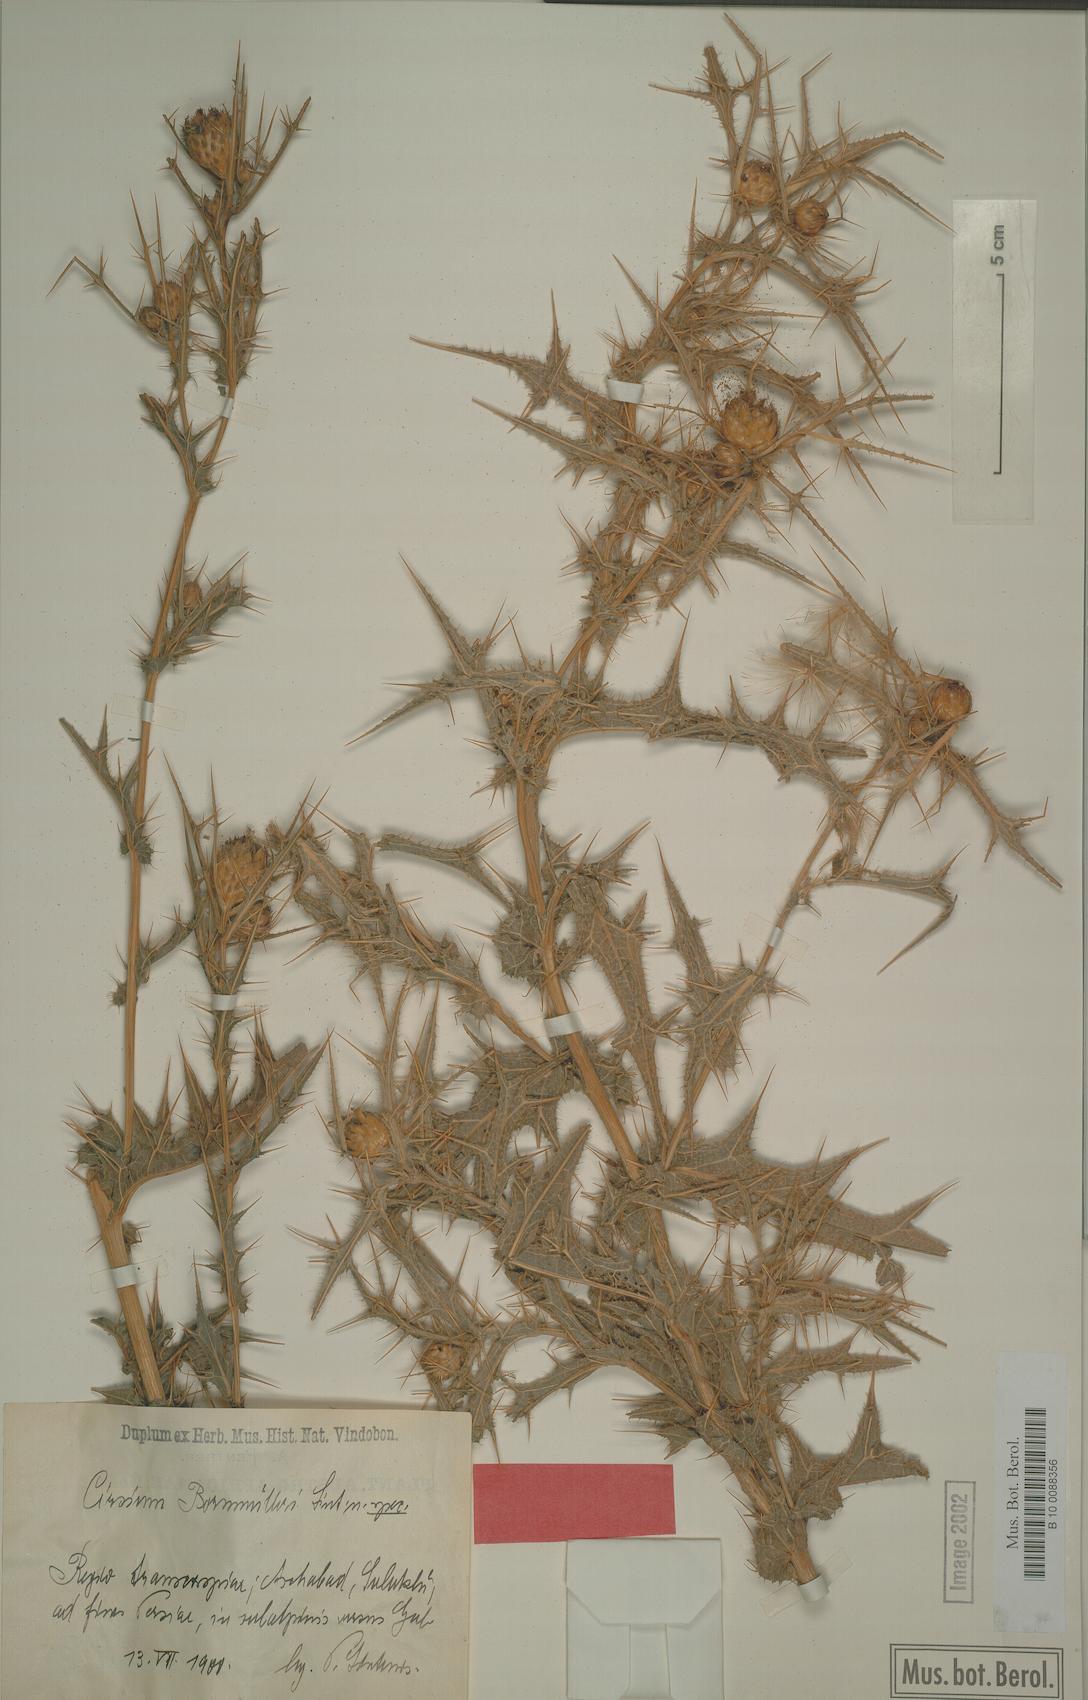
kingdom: Plantae
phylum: Tracheophyta
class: Magnoliopsida
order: Asterales
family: Asteraceae
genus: Lophiolepis
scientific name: Lophiolepis bornmuelleri
